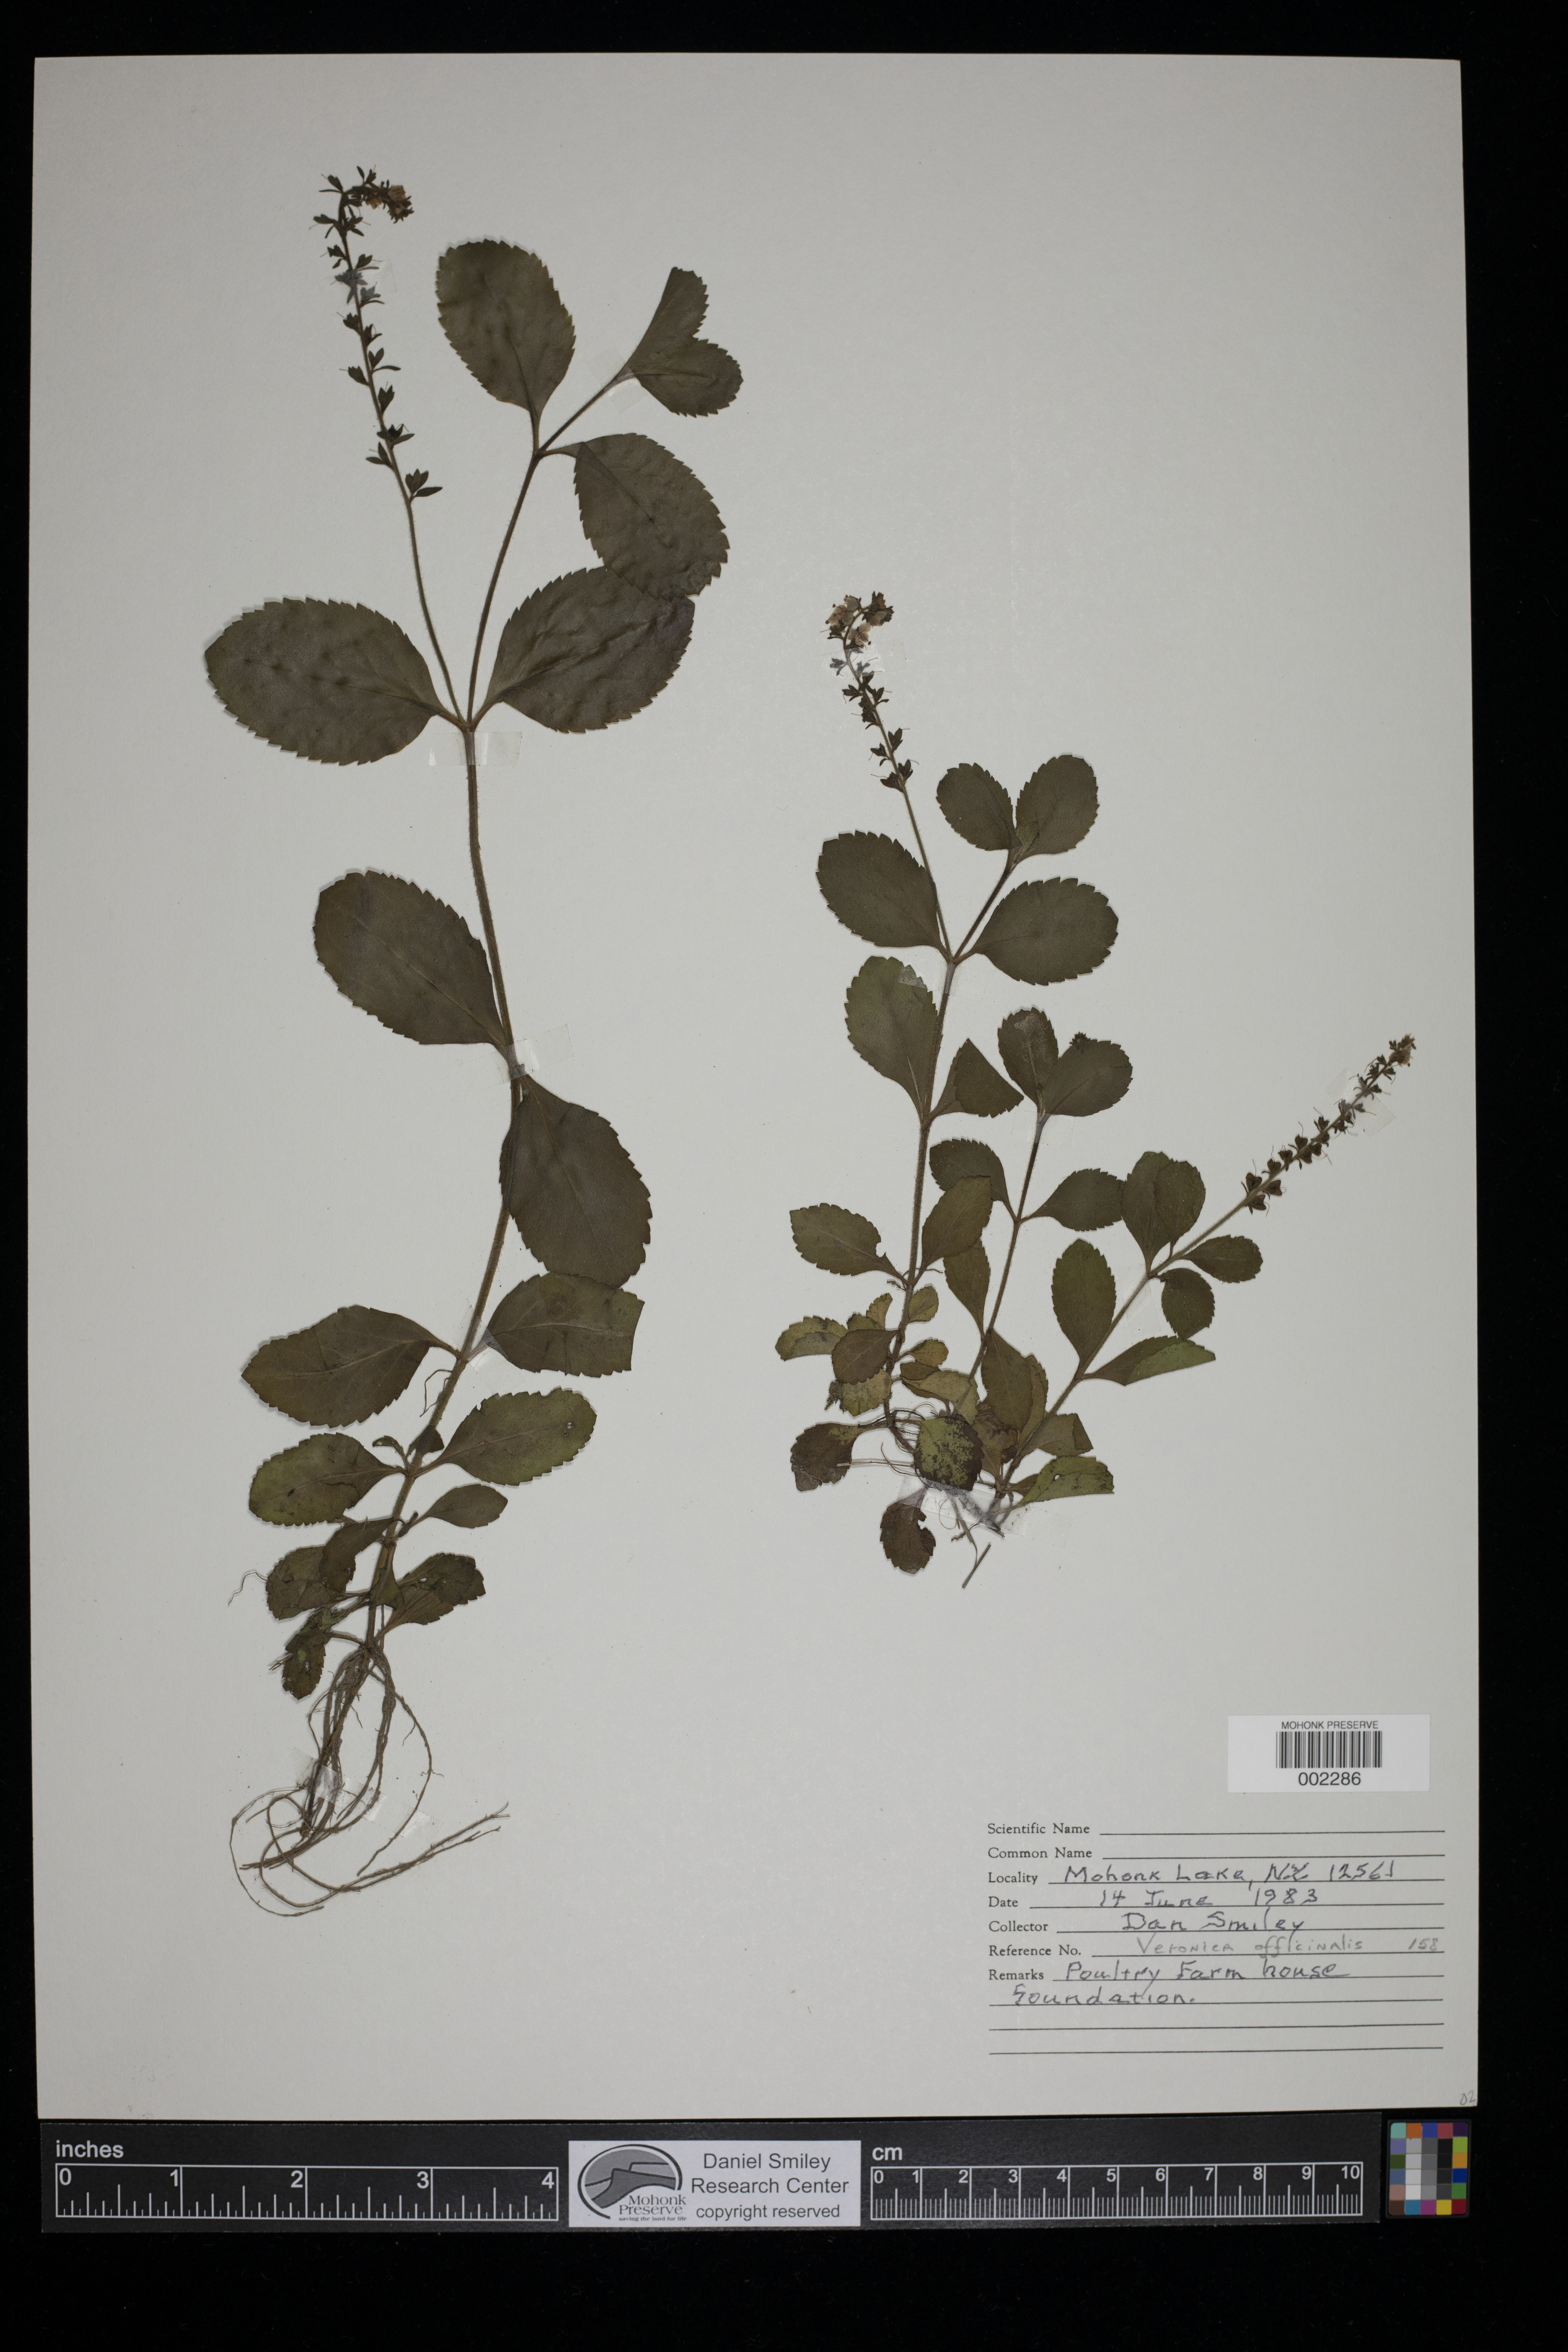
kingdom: Plantae
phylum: Tracheophyta
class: Magnoliopsida
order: Lamiales
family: Plantaginaceae
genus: Veronica
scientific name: Veronica officinalis
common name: Common speedwell
